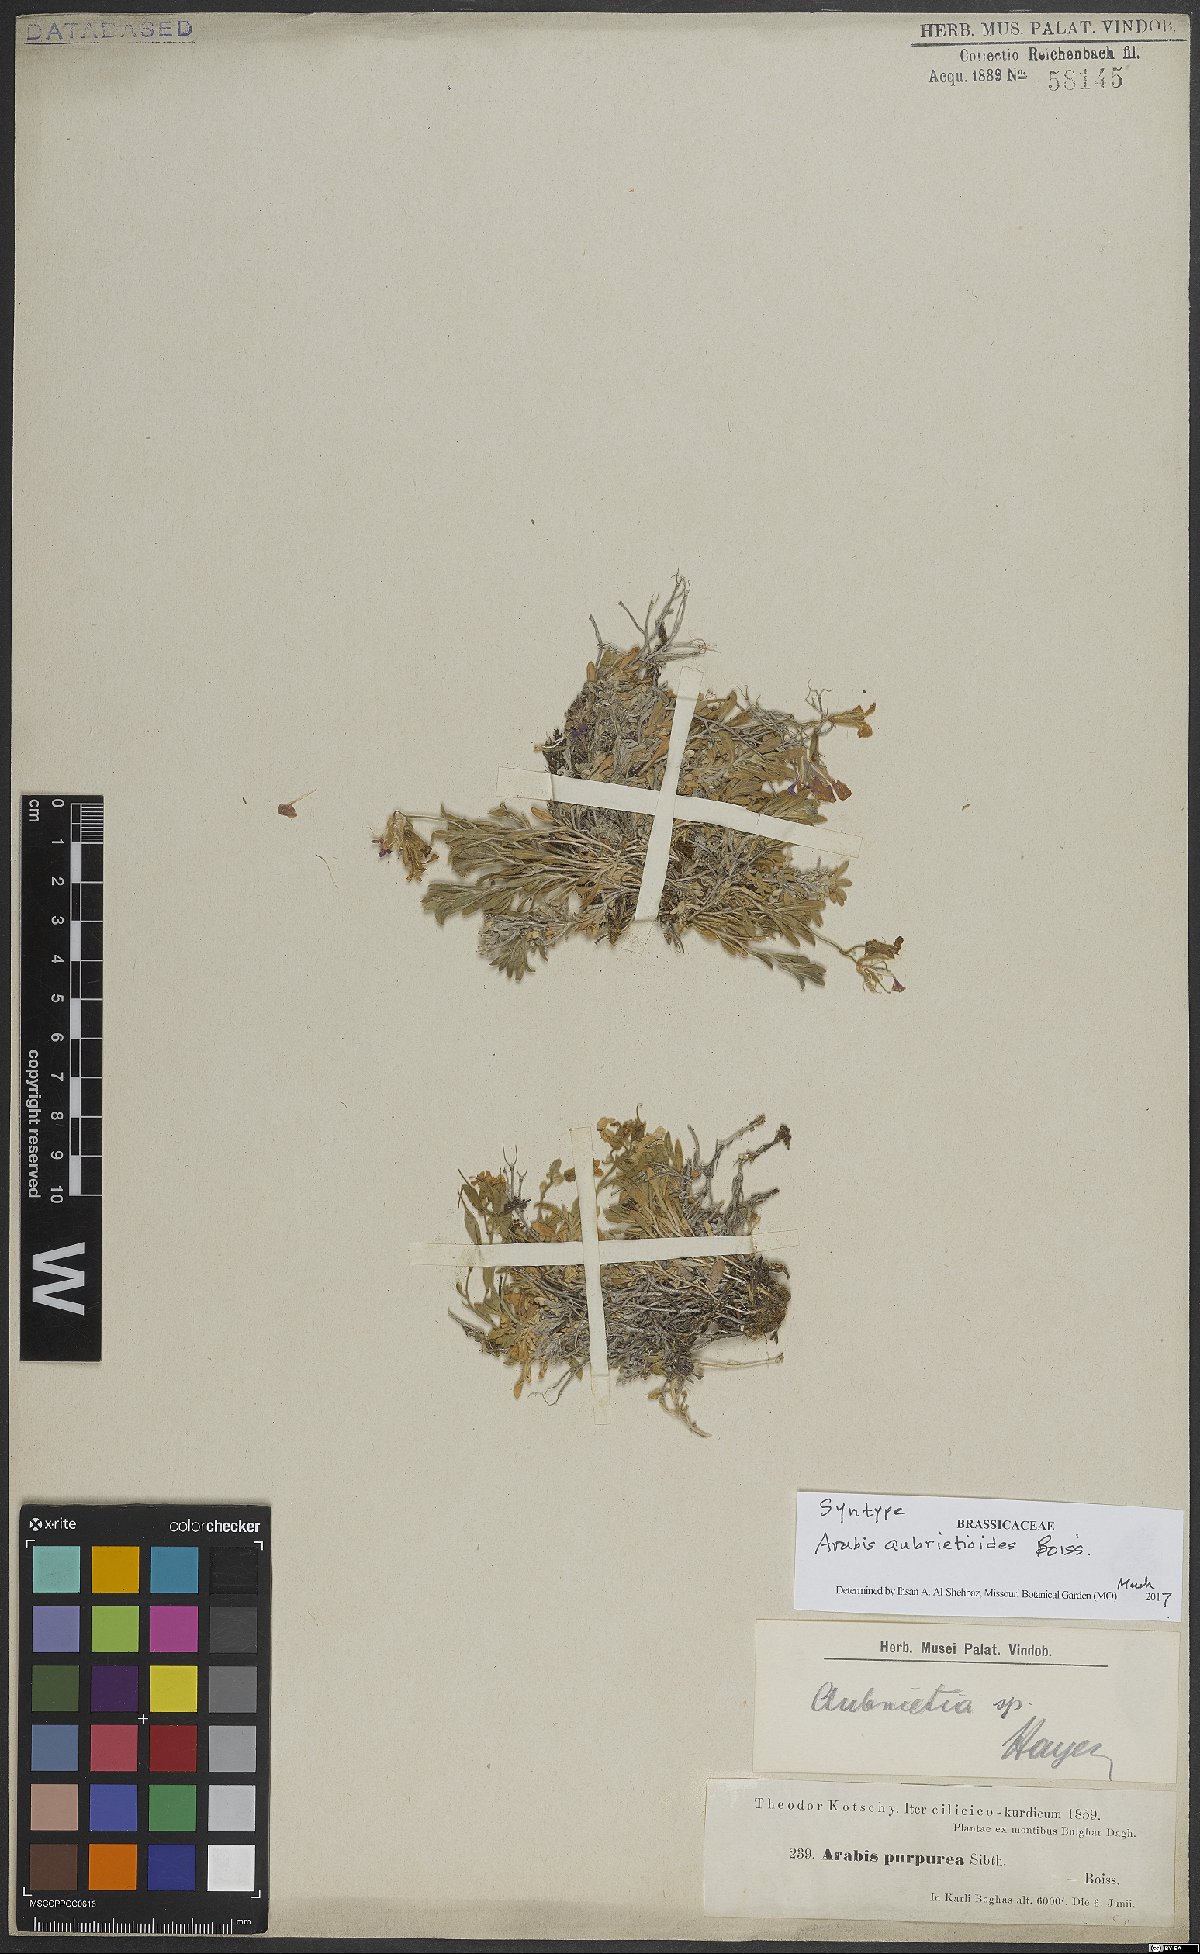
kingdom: Plantae
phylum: Tracheophyta
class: Magnoliopsida
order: Brassicales
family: Brassicaceae
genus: Arabis
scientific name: Arabis aubrietioides
